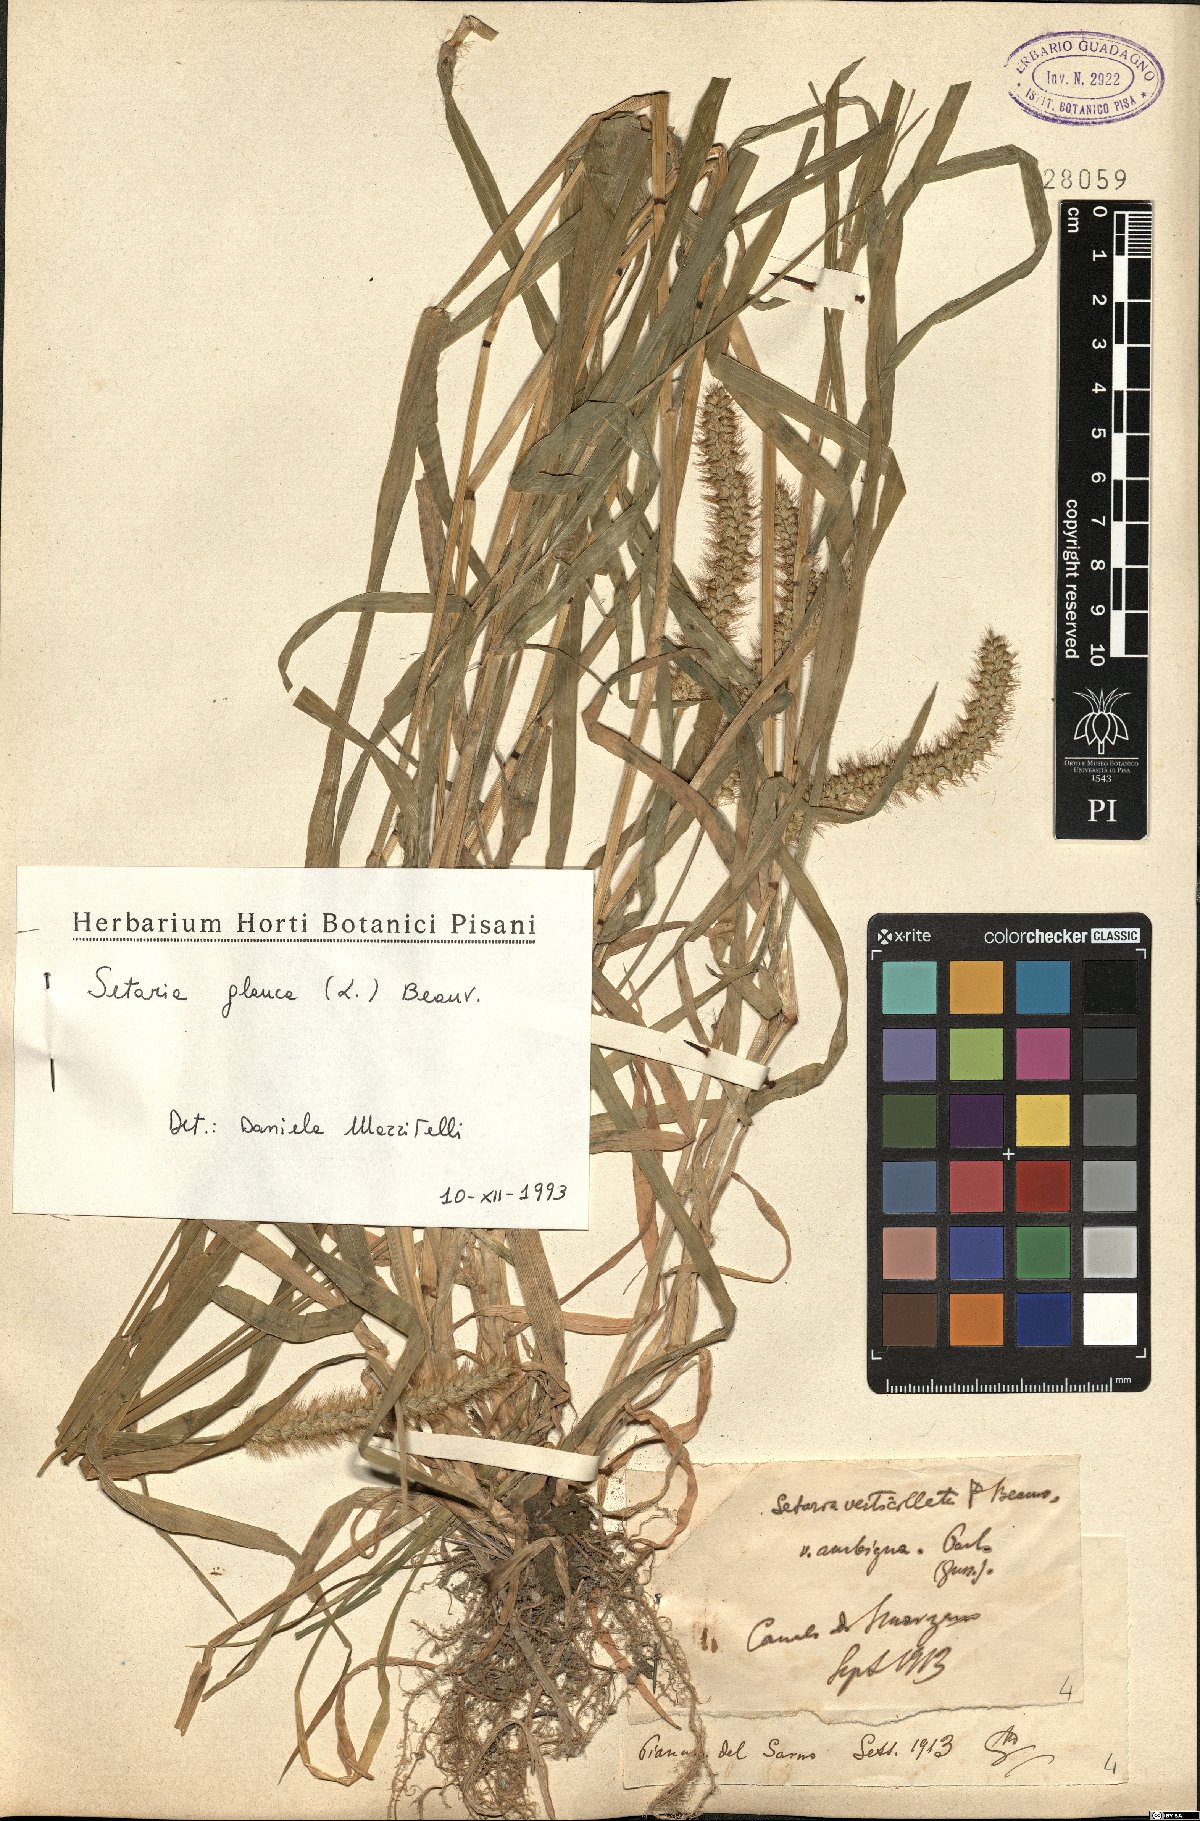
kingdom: Plantae
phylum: Tracheophyta
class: Liliopsida
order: Poales
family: Poaceae
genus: Cenchrus
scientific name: Cenchrus americanus
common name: Pearl millet
